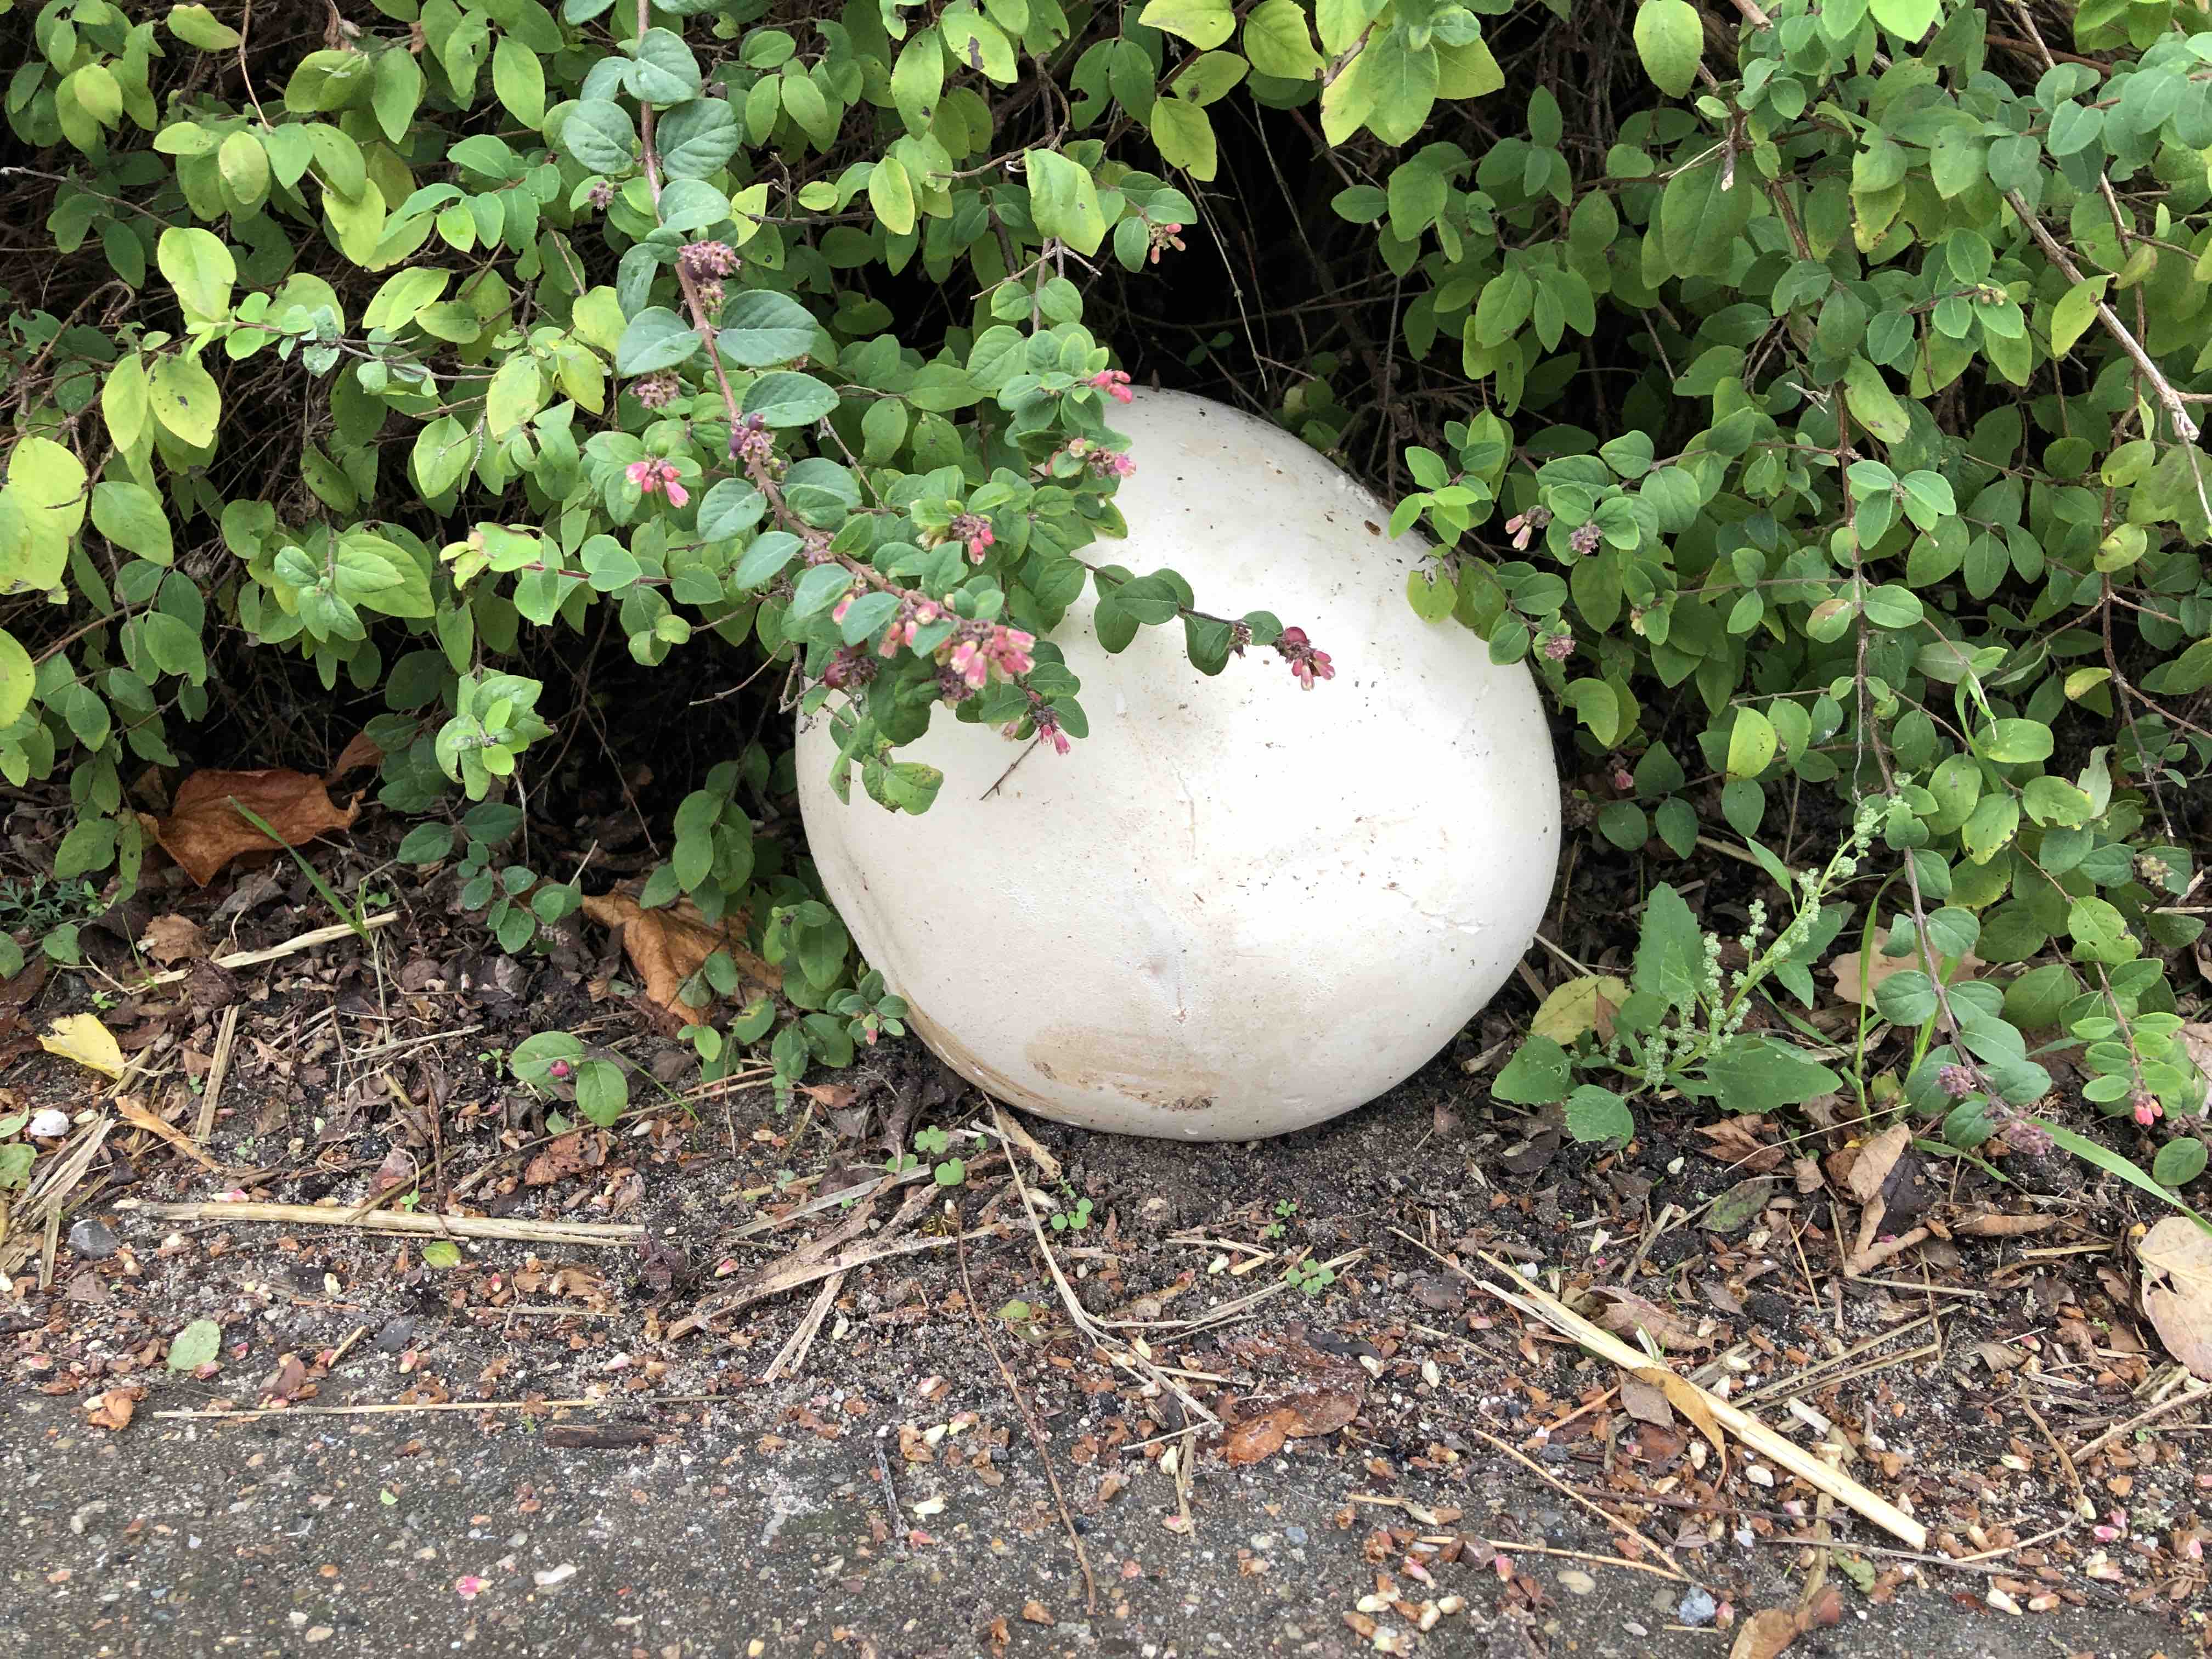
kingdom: Fungi
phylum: Basidiomycota
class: Agaricomycetes
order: Agaricales
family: Lycoperdaceae
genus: Calvatia
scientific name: Calvatia gigantea
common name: kæmpestøvbold
